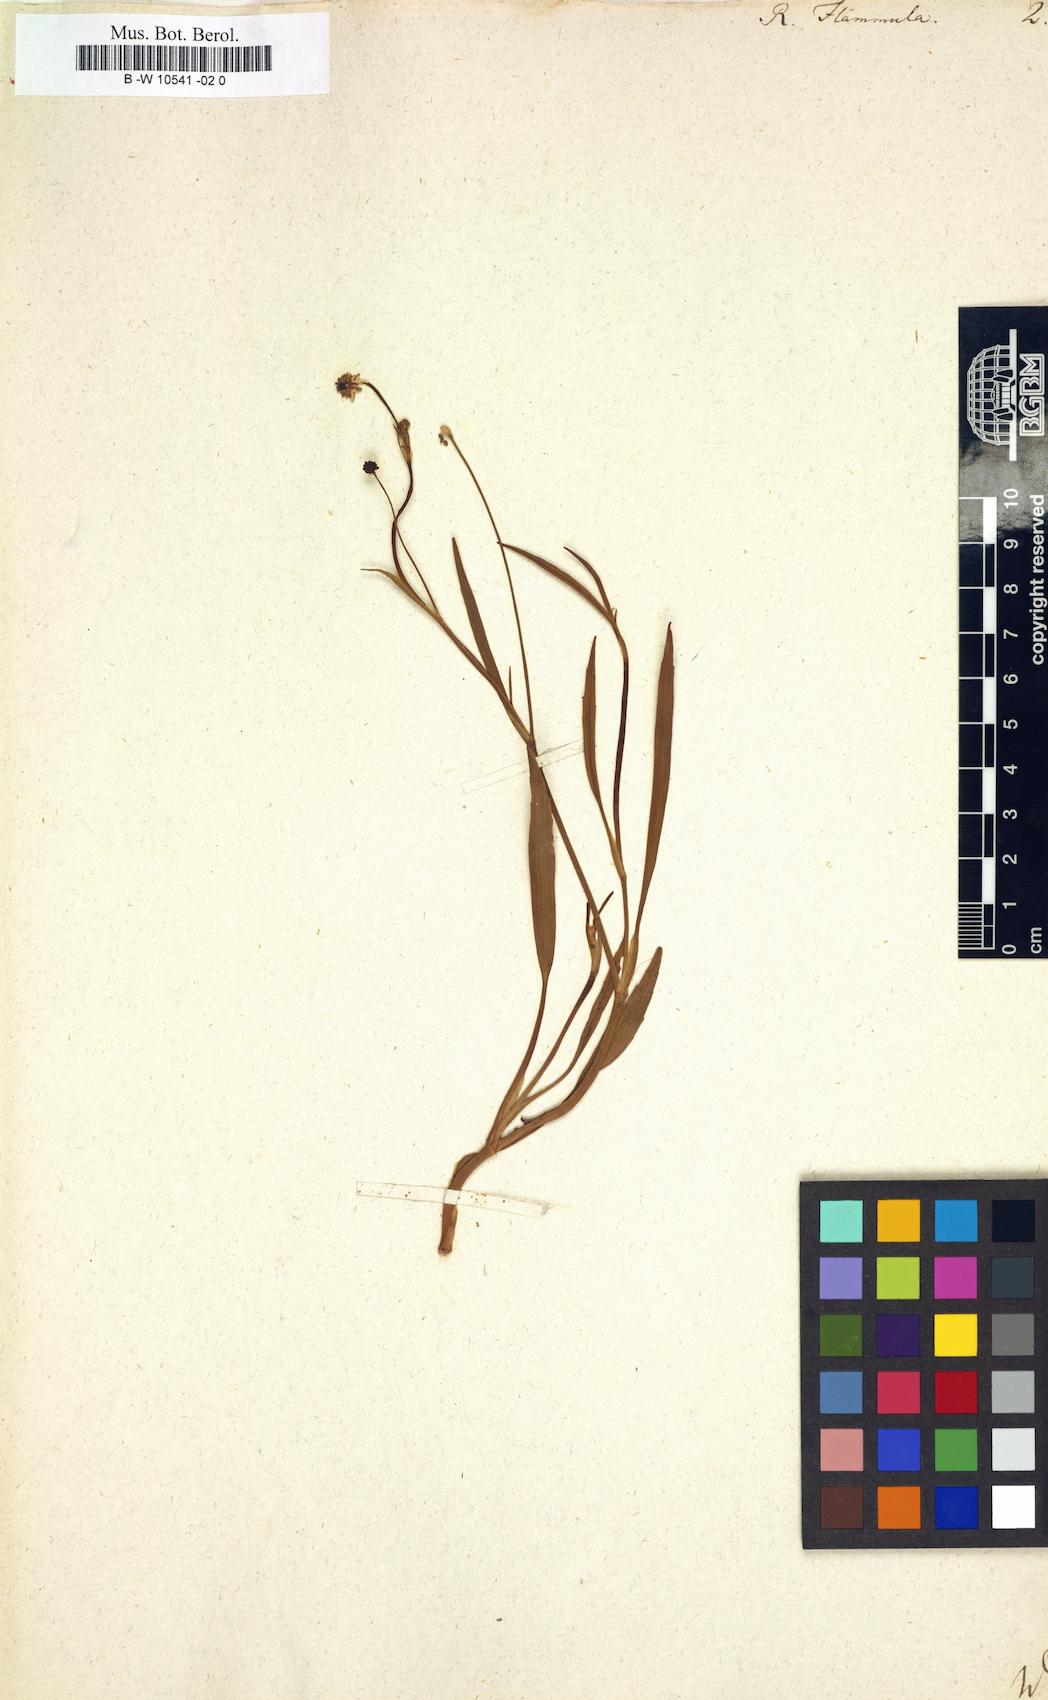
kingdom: Plantae
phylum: Tracheophyta
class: Magnoliopsida
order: Ranunculales
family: Ranunculaceae
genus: Ranunculus
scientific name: Ranunculus flammula
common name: Lesser spearwort
